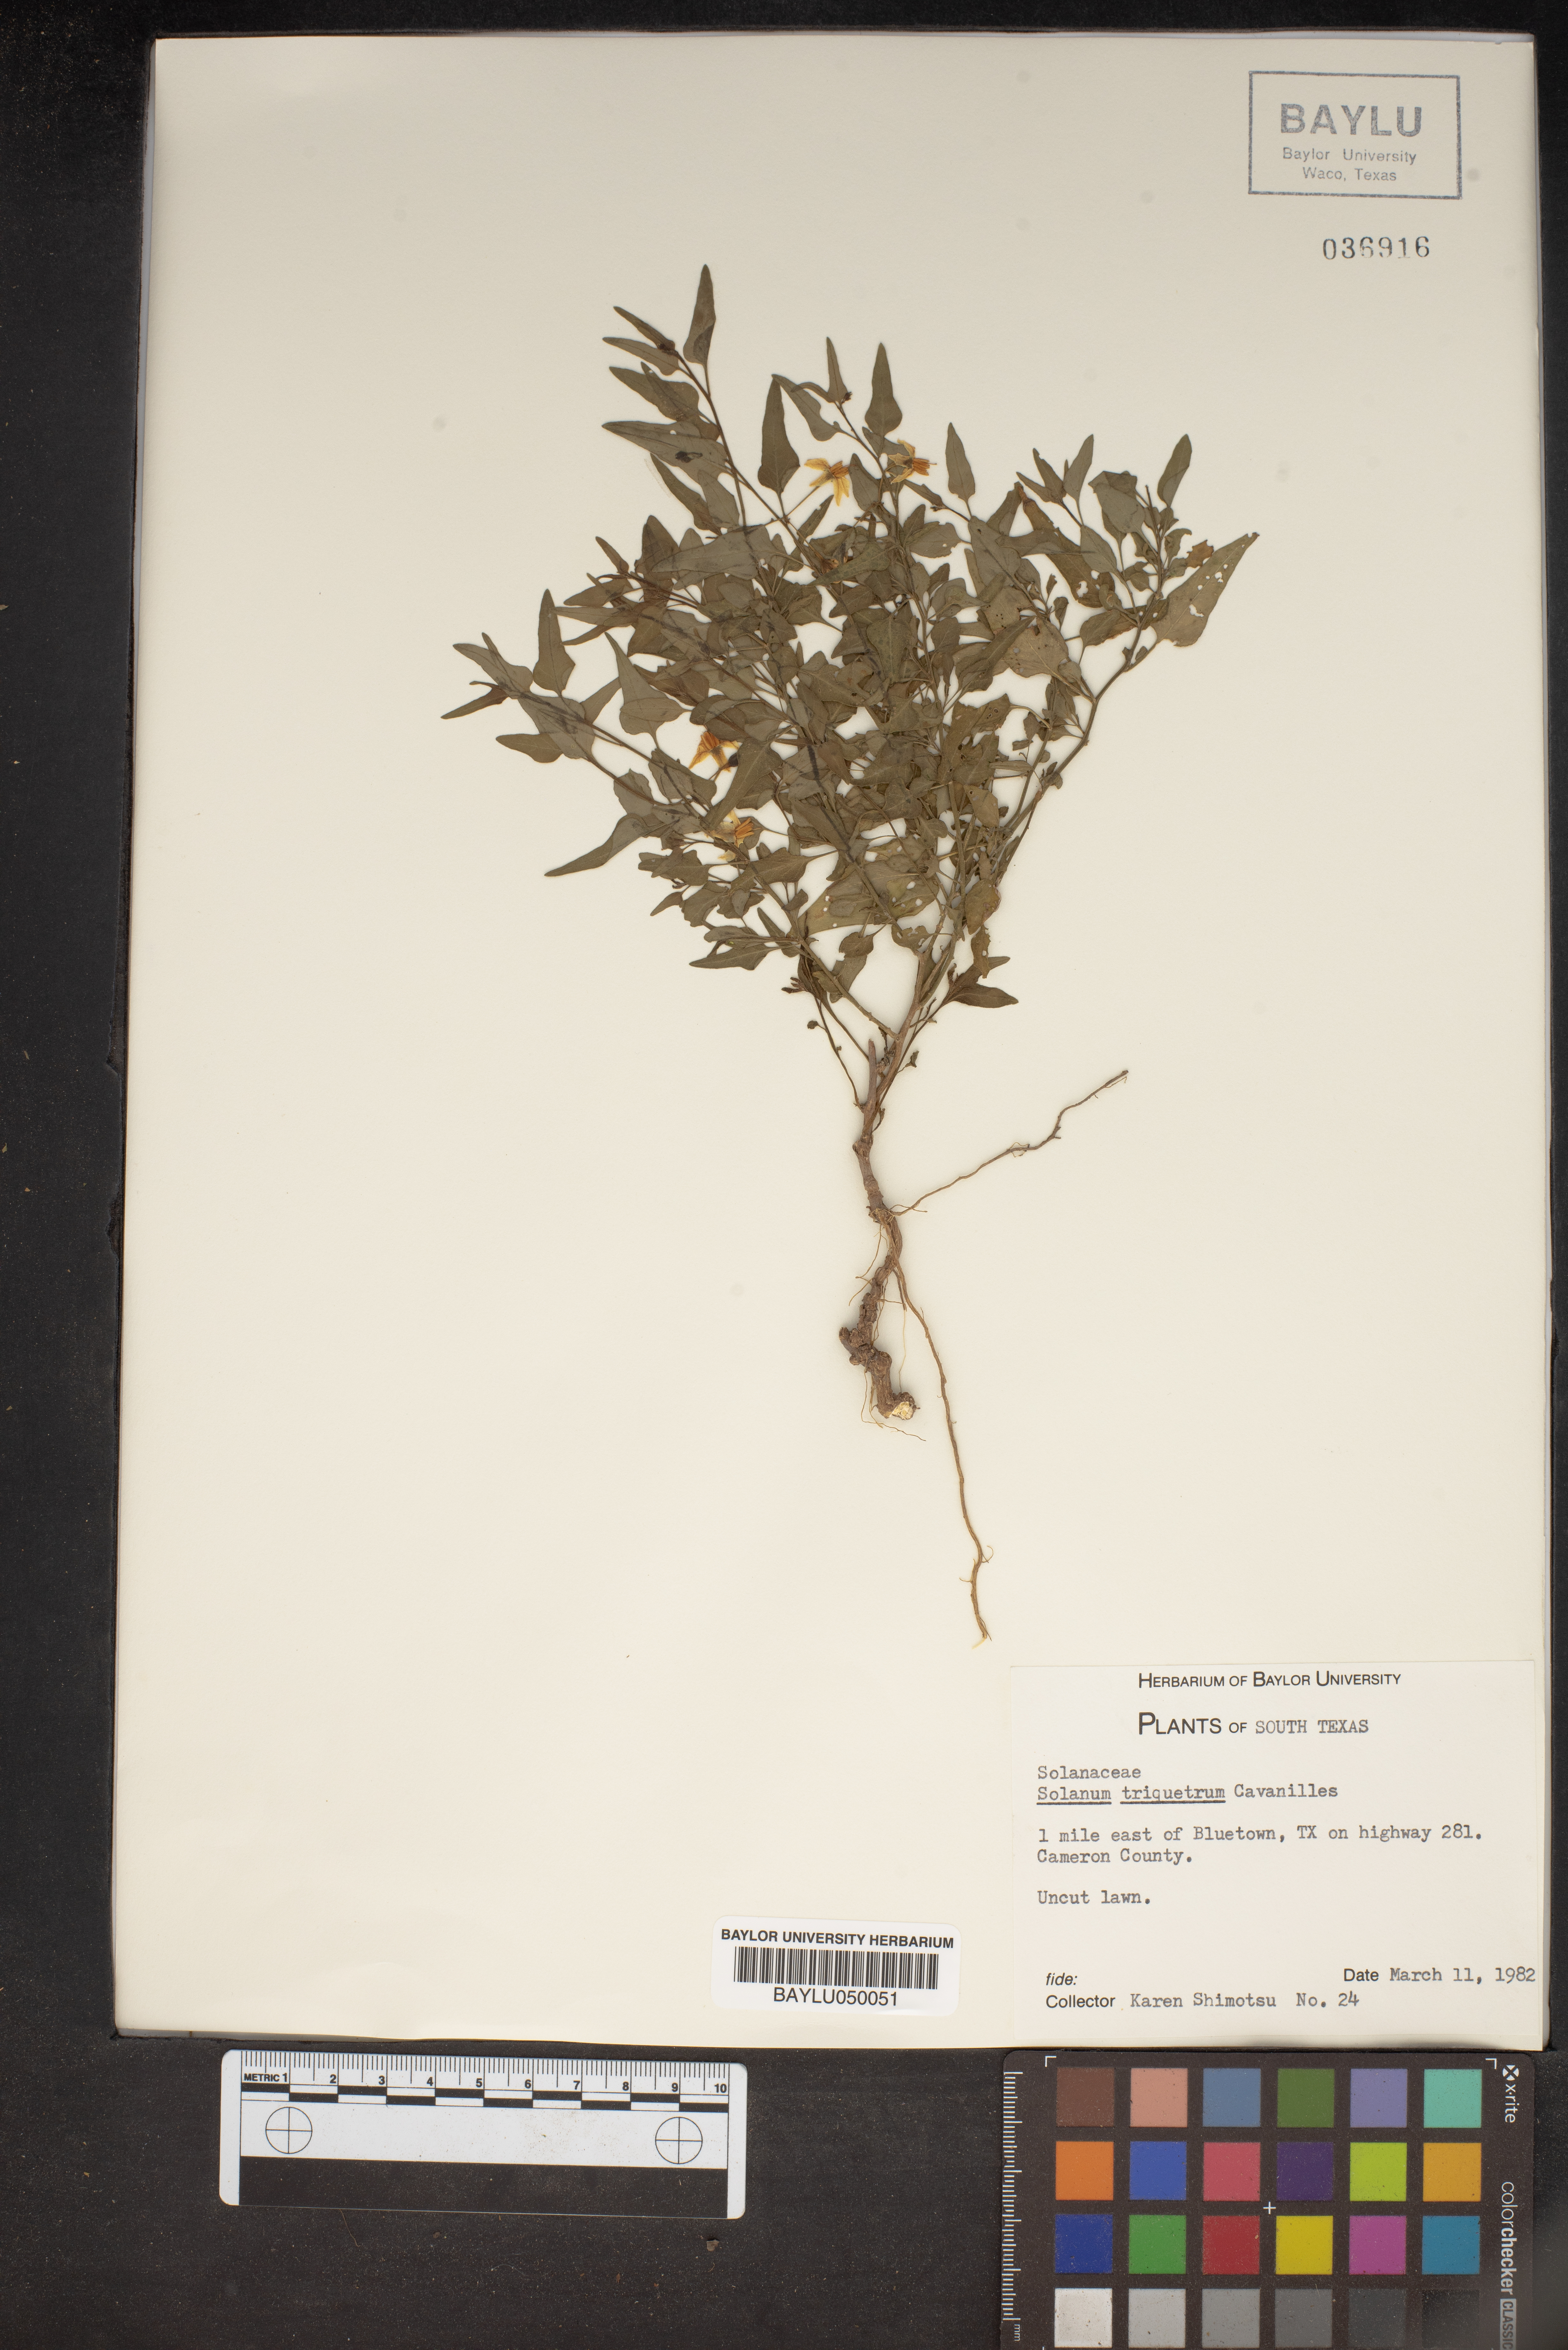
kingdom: Plantae
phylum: Tracheophyta
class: Magnoliopsida
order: Solanales
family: Solanaceae
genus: Solanum
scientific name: Solanum triquetrum
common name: Texas nightshade
